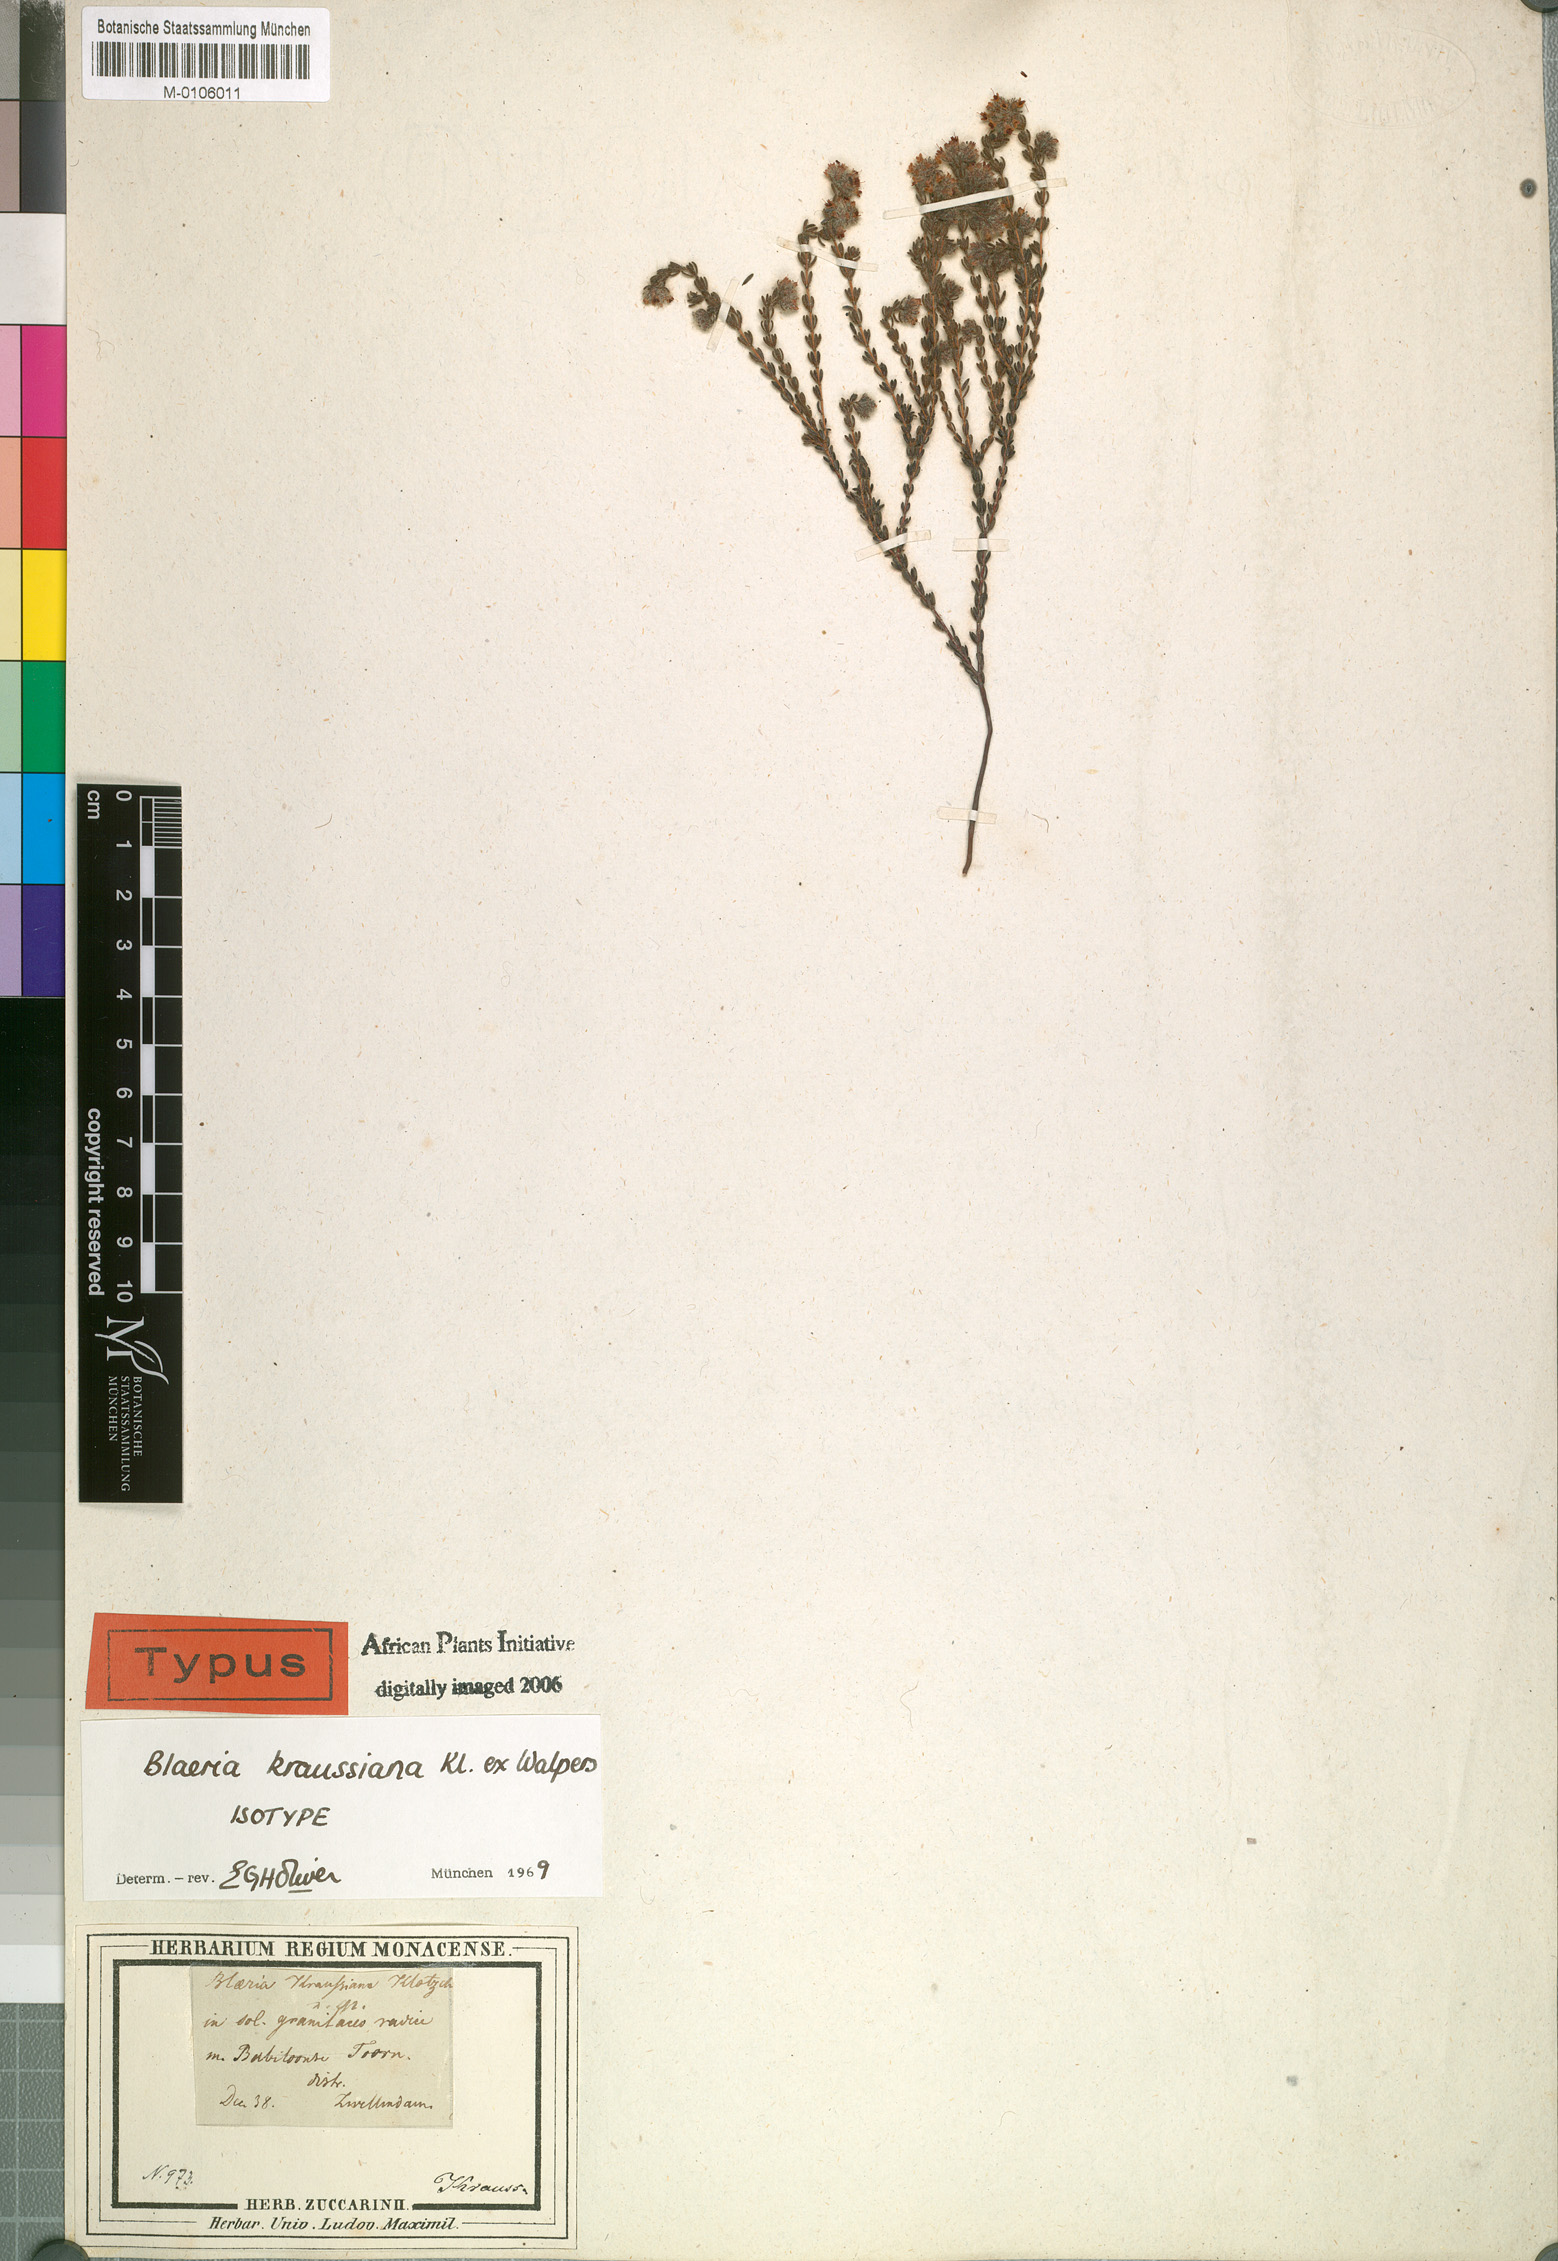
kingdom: Plantae
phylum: Tracheophyta
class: Magnoliopsida
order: Ericales
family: Ericaceae
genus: Erica
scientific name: Erica kraussiana
